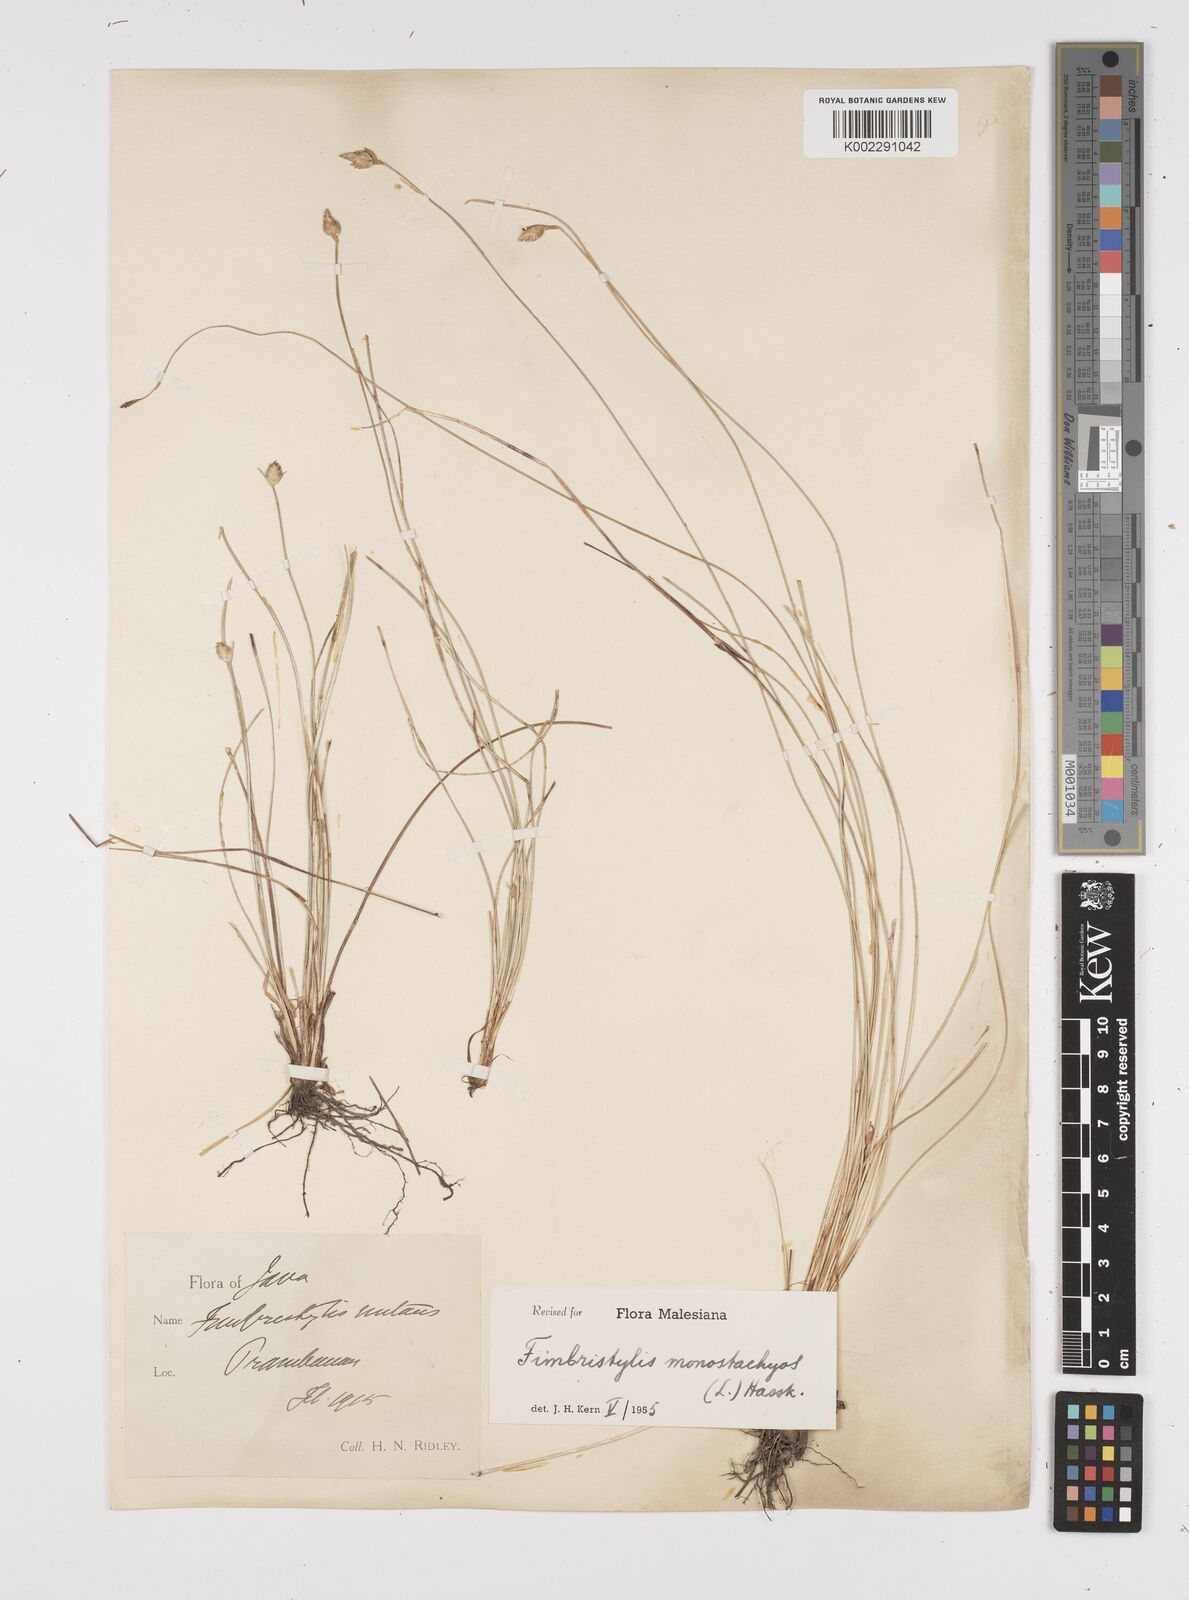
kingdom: Plantae
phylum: Tracheophyta
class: Liliopsida
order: Poales
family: Cyperaceae
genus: Abildgaardia
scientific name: Abildgaardia ovata
